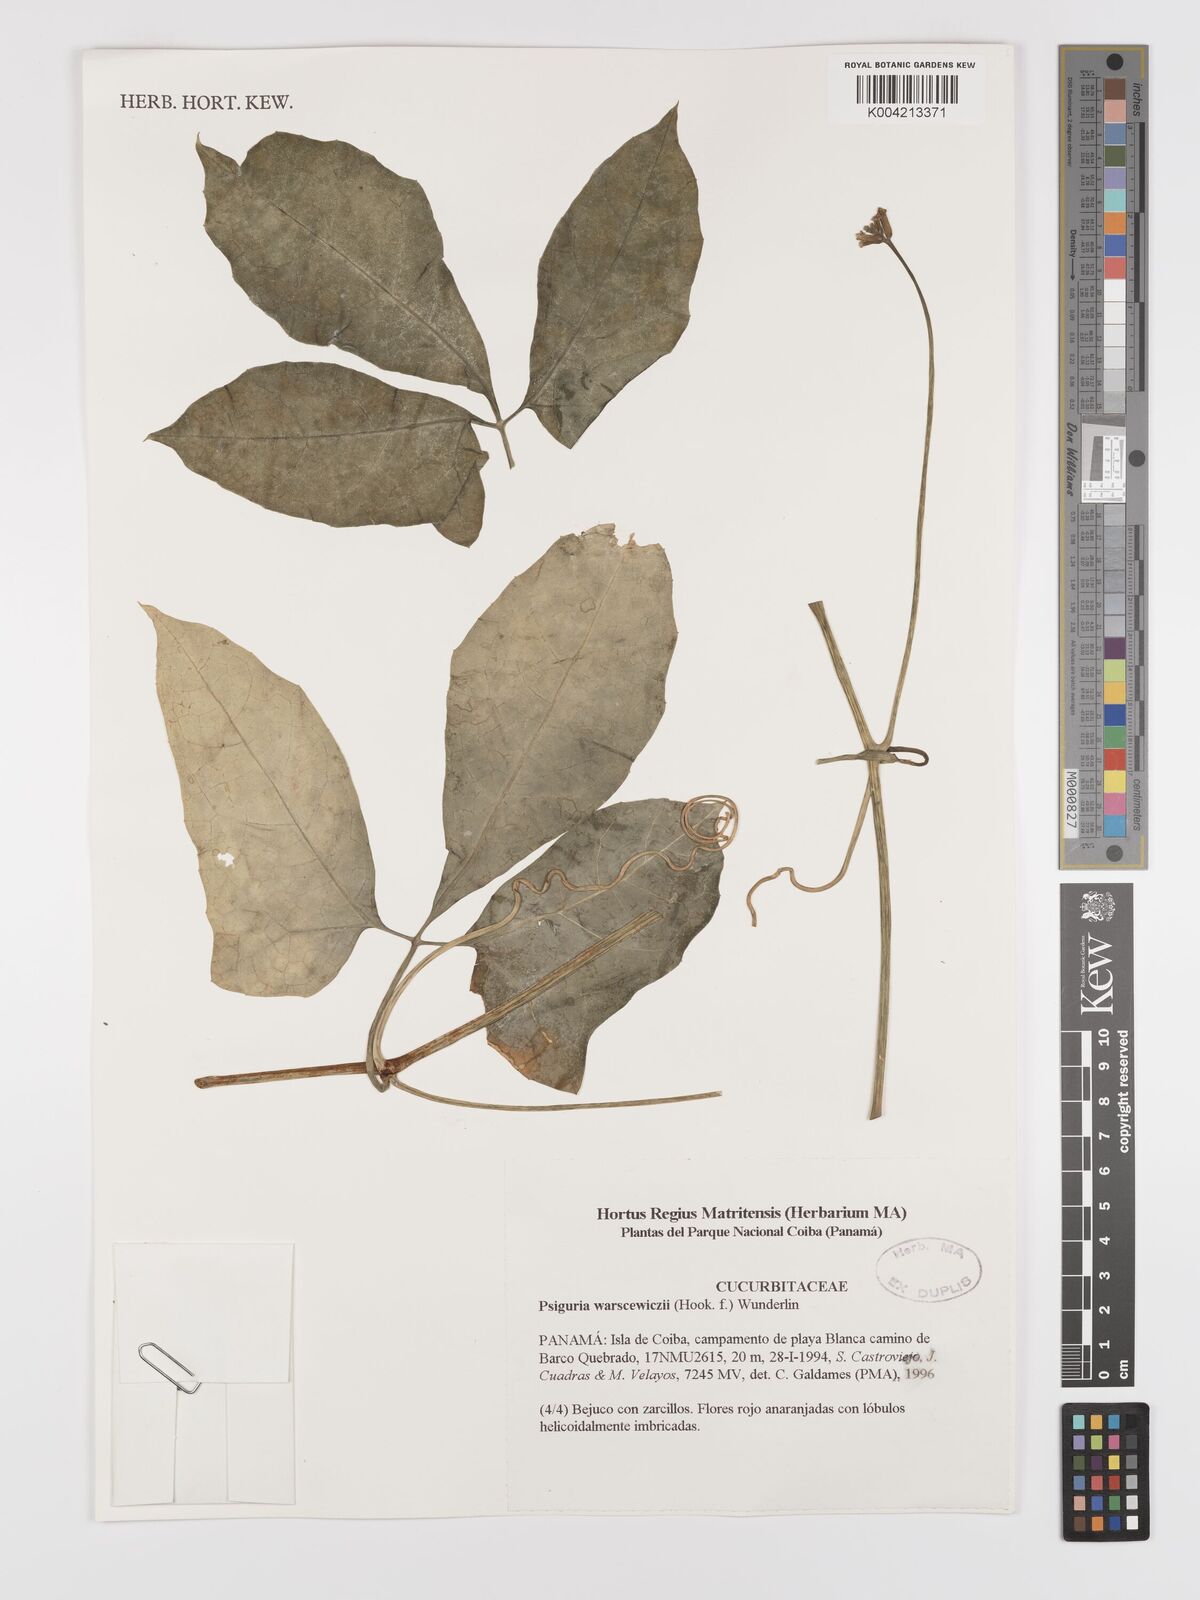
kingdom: Plantae
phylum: Tracheophyta
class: Magnoliopsida
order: Cucurbitales
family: Cucurbitaceae
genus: Psiguria
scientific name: Psiguria warscewiczii
